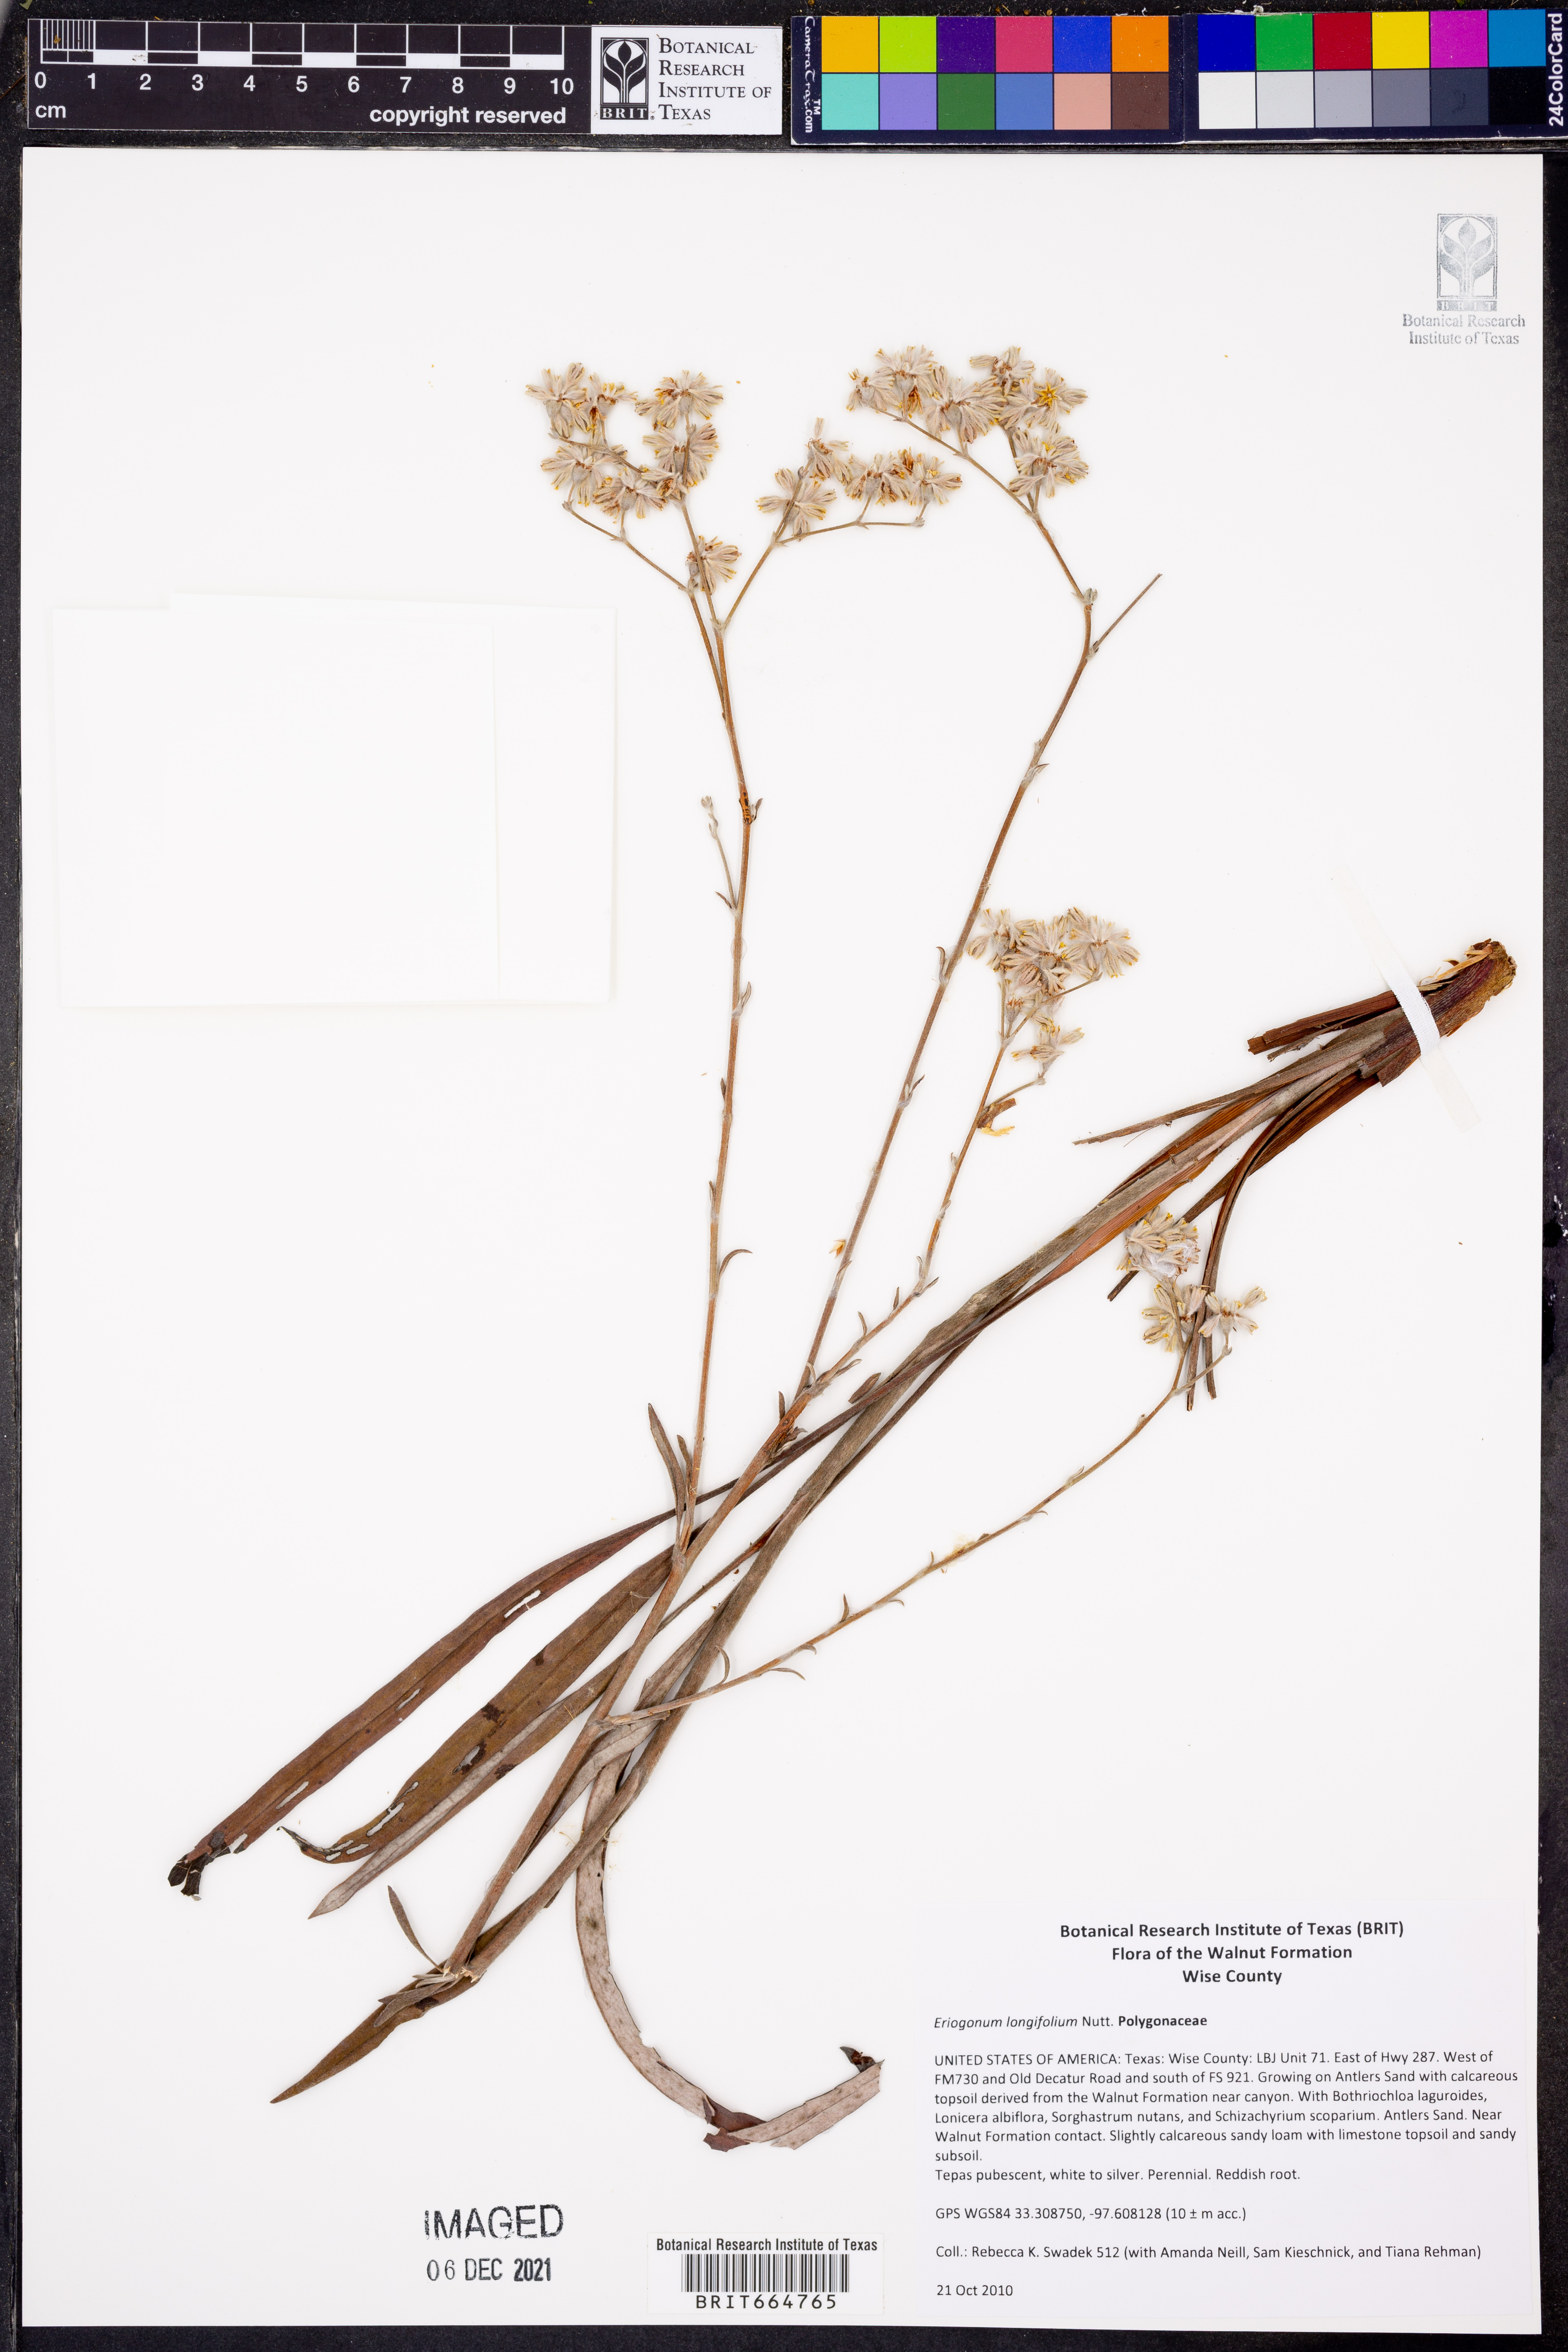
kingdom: Plantae
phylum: Tracheophyta
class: Magnoliopsida
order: Caryophyllales
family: Polygonaceae
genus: Eriogonum
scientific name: Eriogonum longifolium
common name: Longleaf wild buckwheat
